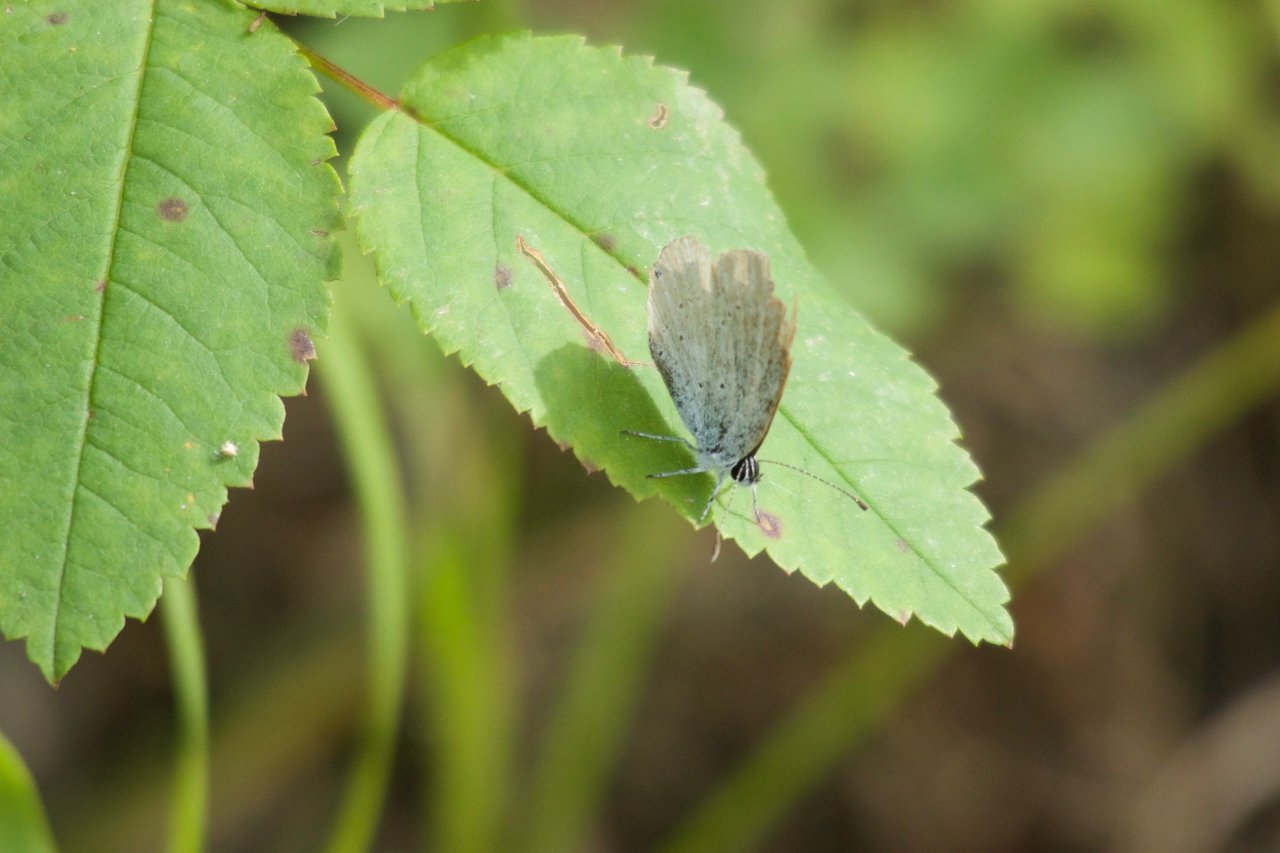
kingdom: Animalia
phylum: Arthropoda
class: Insecta
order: Lepidoptera
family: Lycaenidae
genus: Elkalyce
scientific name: Elkalyce amyntula
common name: Western Tailed-Blue
